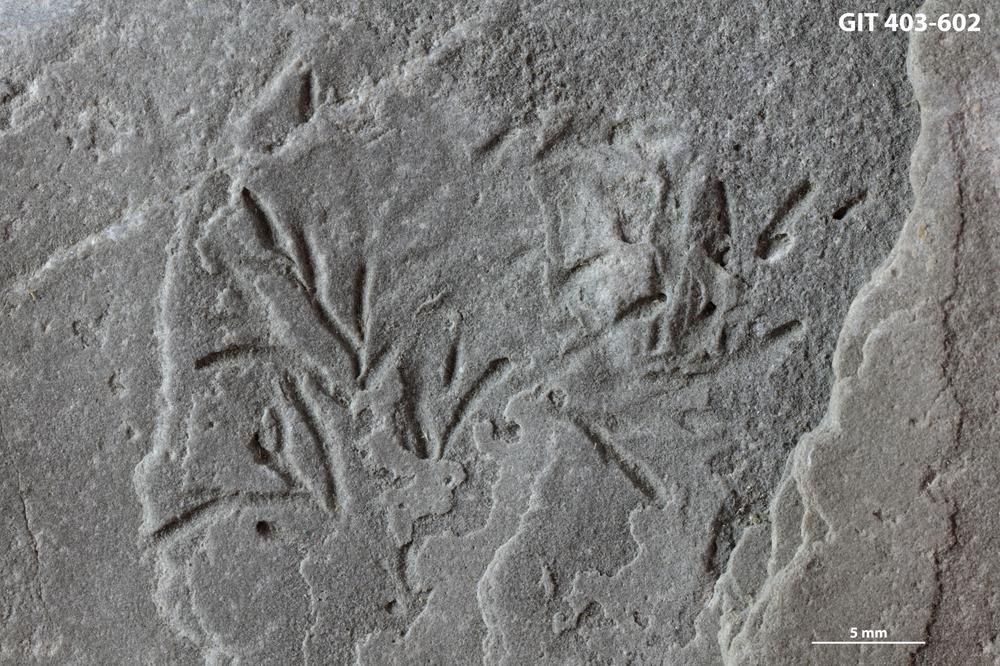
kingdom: Animalia
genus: Chondrites
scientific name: Chondrites
